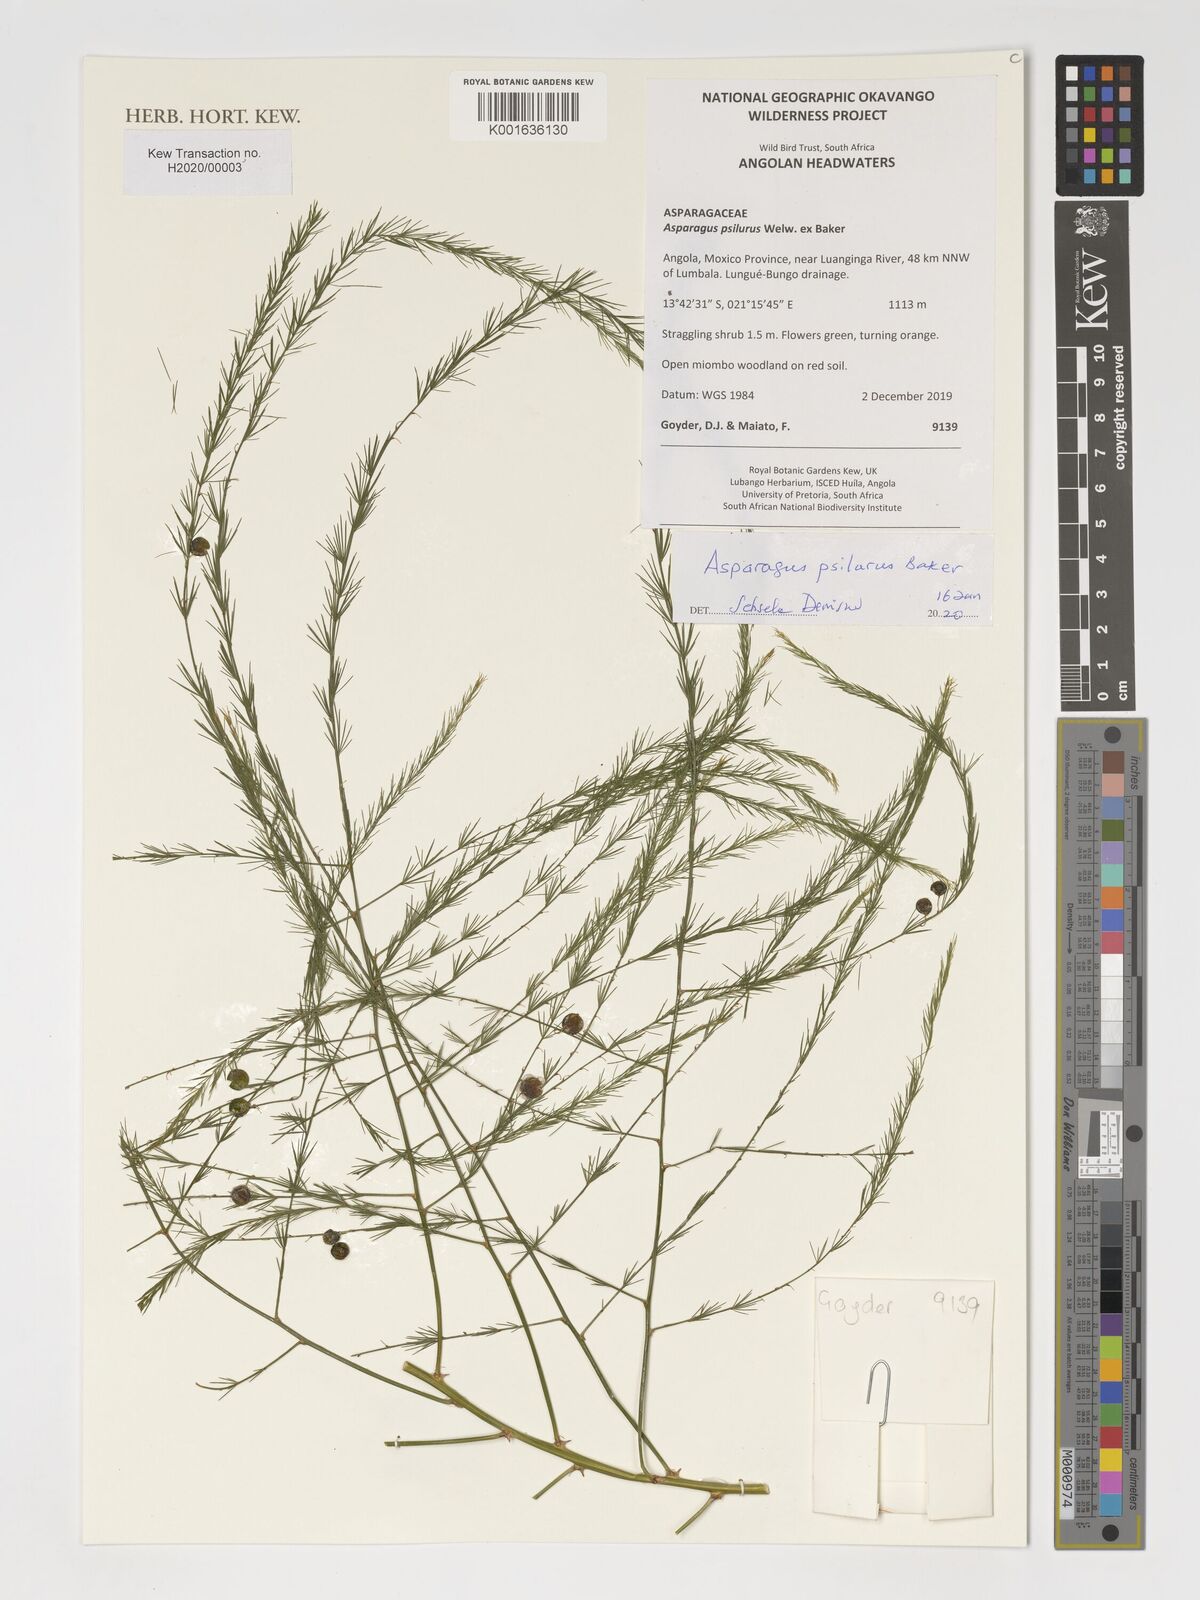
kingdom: Plantae
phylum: Tracheophyta
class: Liliopsida
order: Asparagales
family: Asparagaceae
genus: Asparagus
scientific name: Asparagus psilurus
